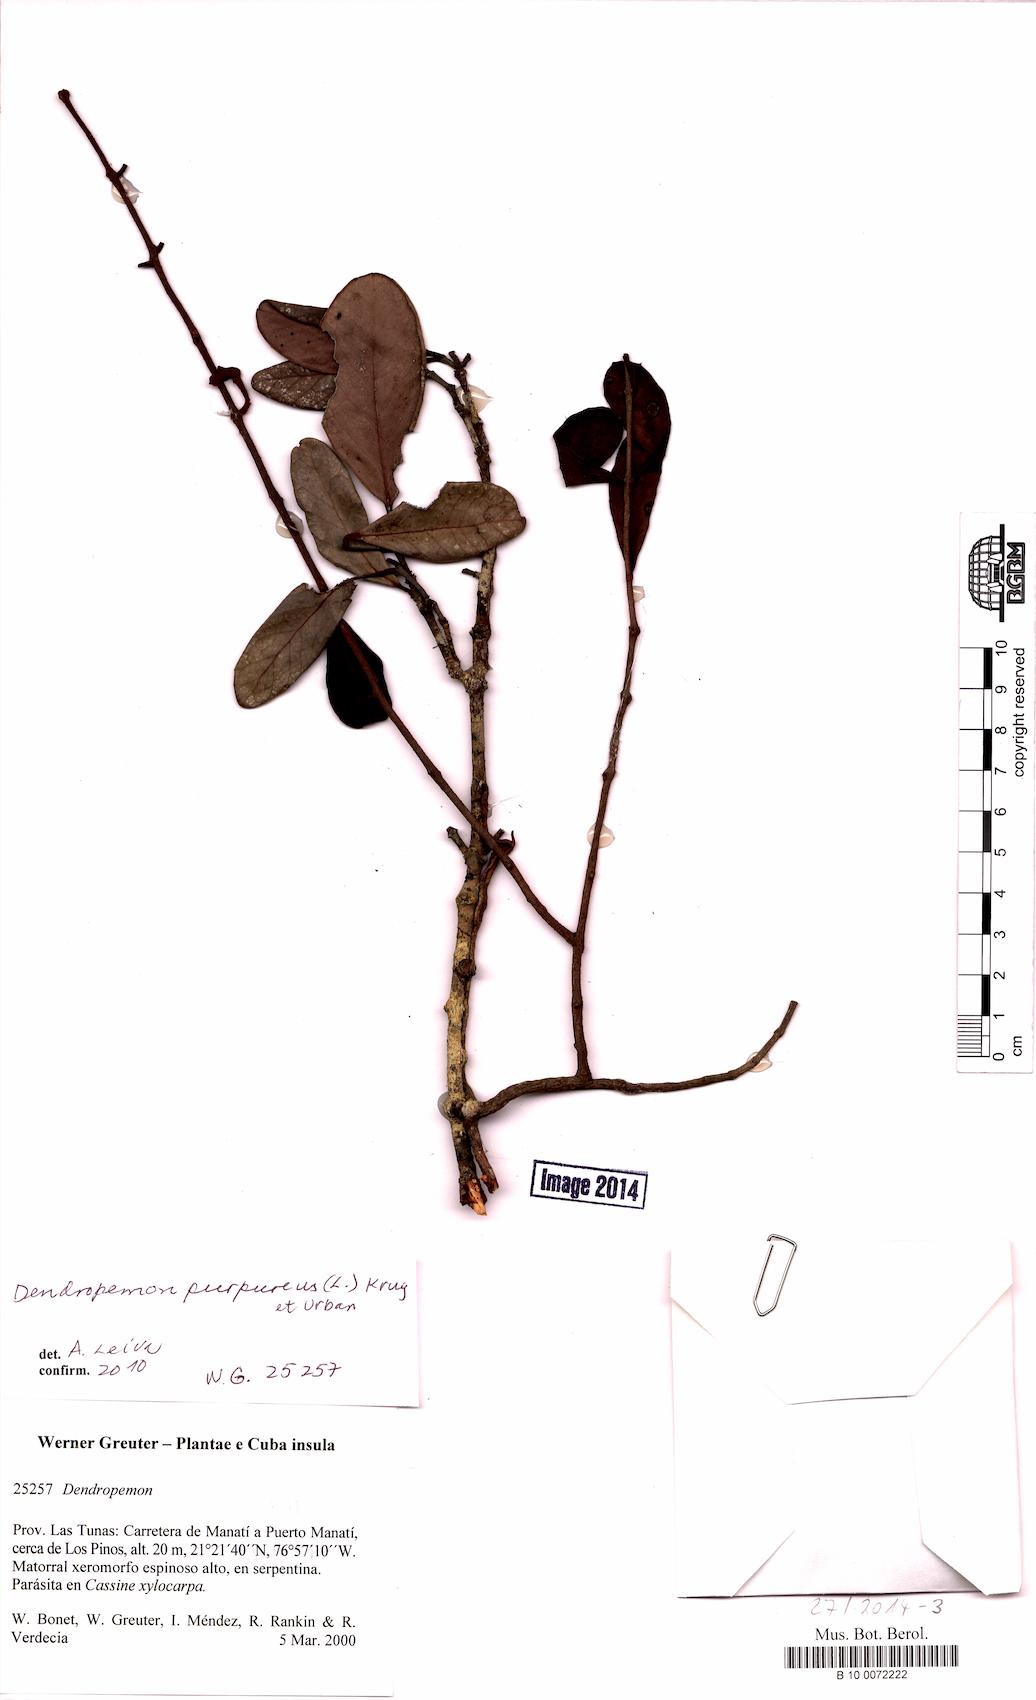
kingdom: Plantae
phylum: Tracheophyta
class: Magnoliopsida
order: Santalales
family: Loranthaceae
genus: Dendropemon
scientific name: Dendropemon purpureus
